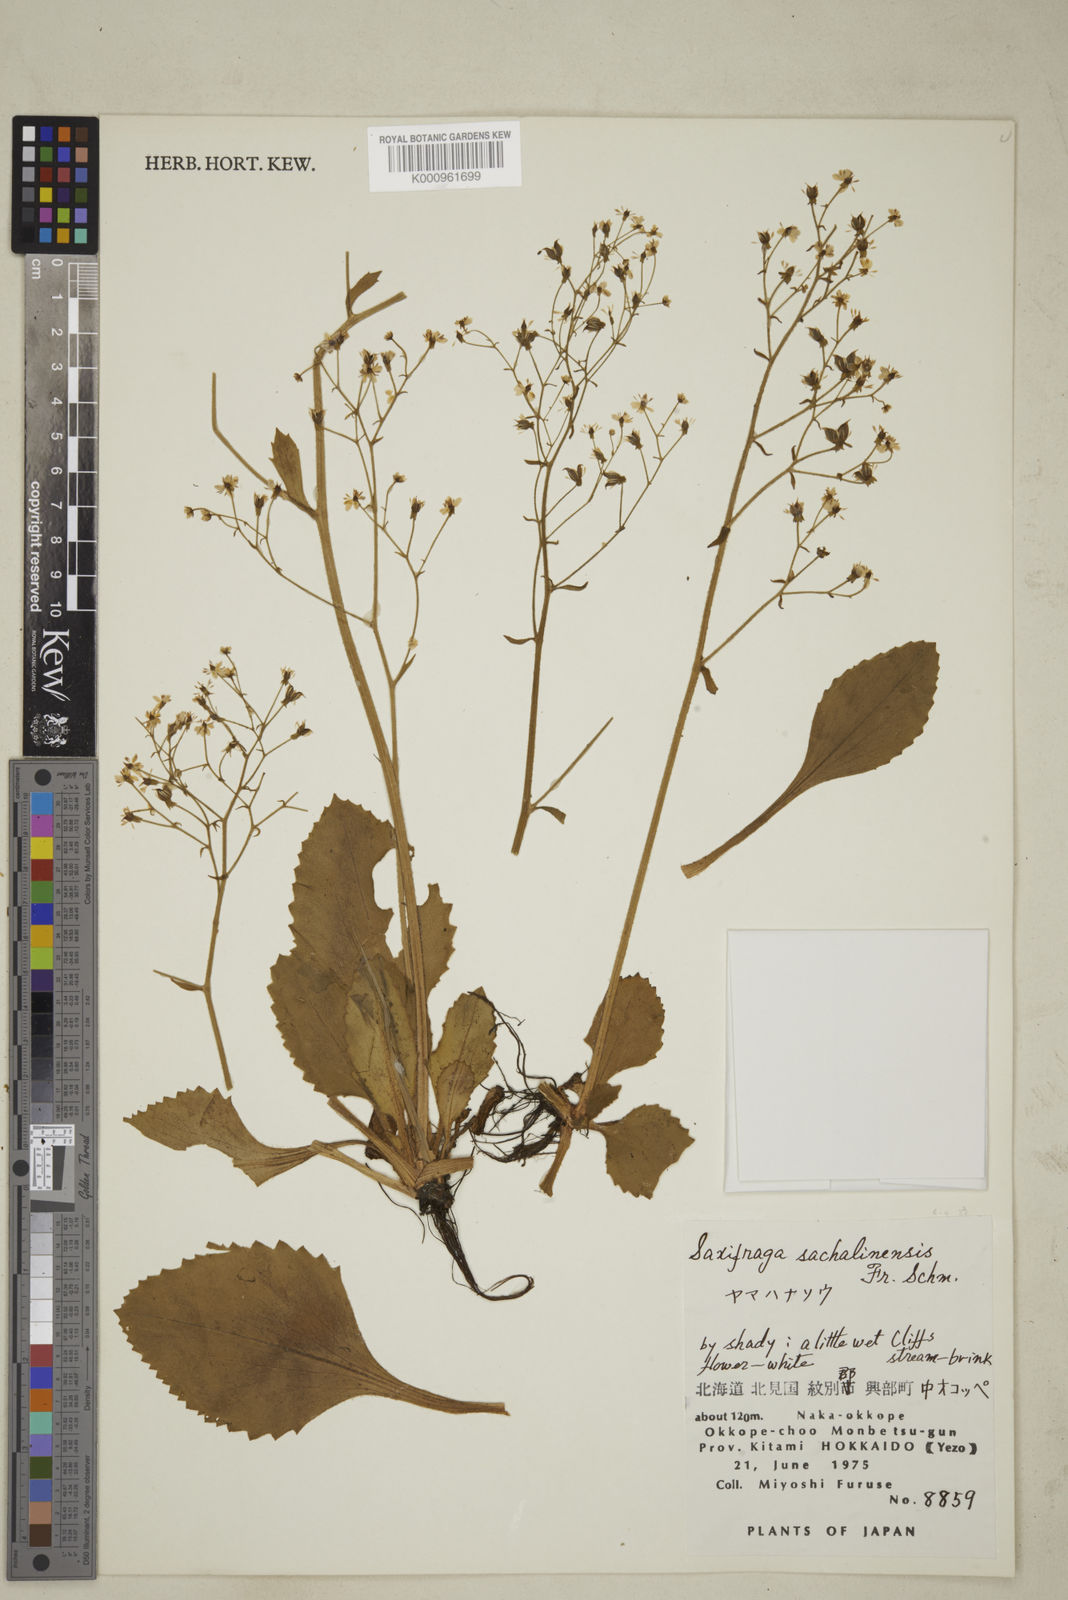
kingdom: Plantae
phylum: Tracheophyta
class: Magnoliopsida
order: Saxifragales
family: Saxifragaceae
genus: Micranthes
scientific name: Micranthes sachalinensis
